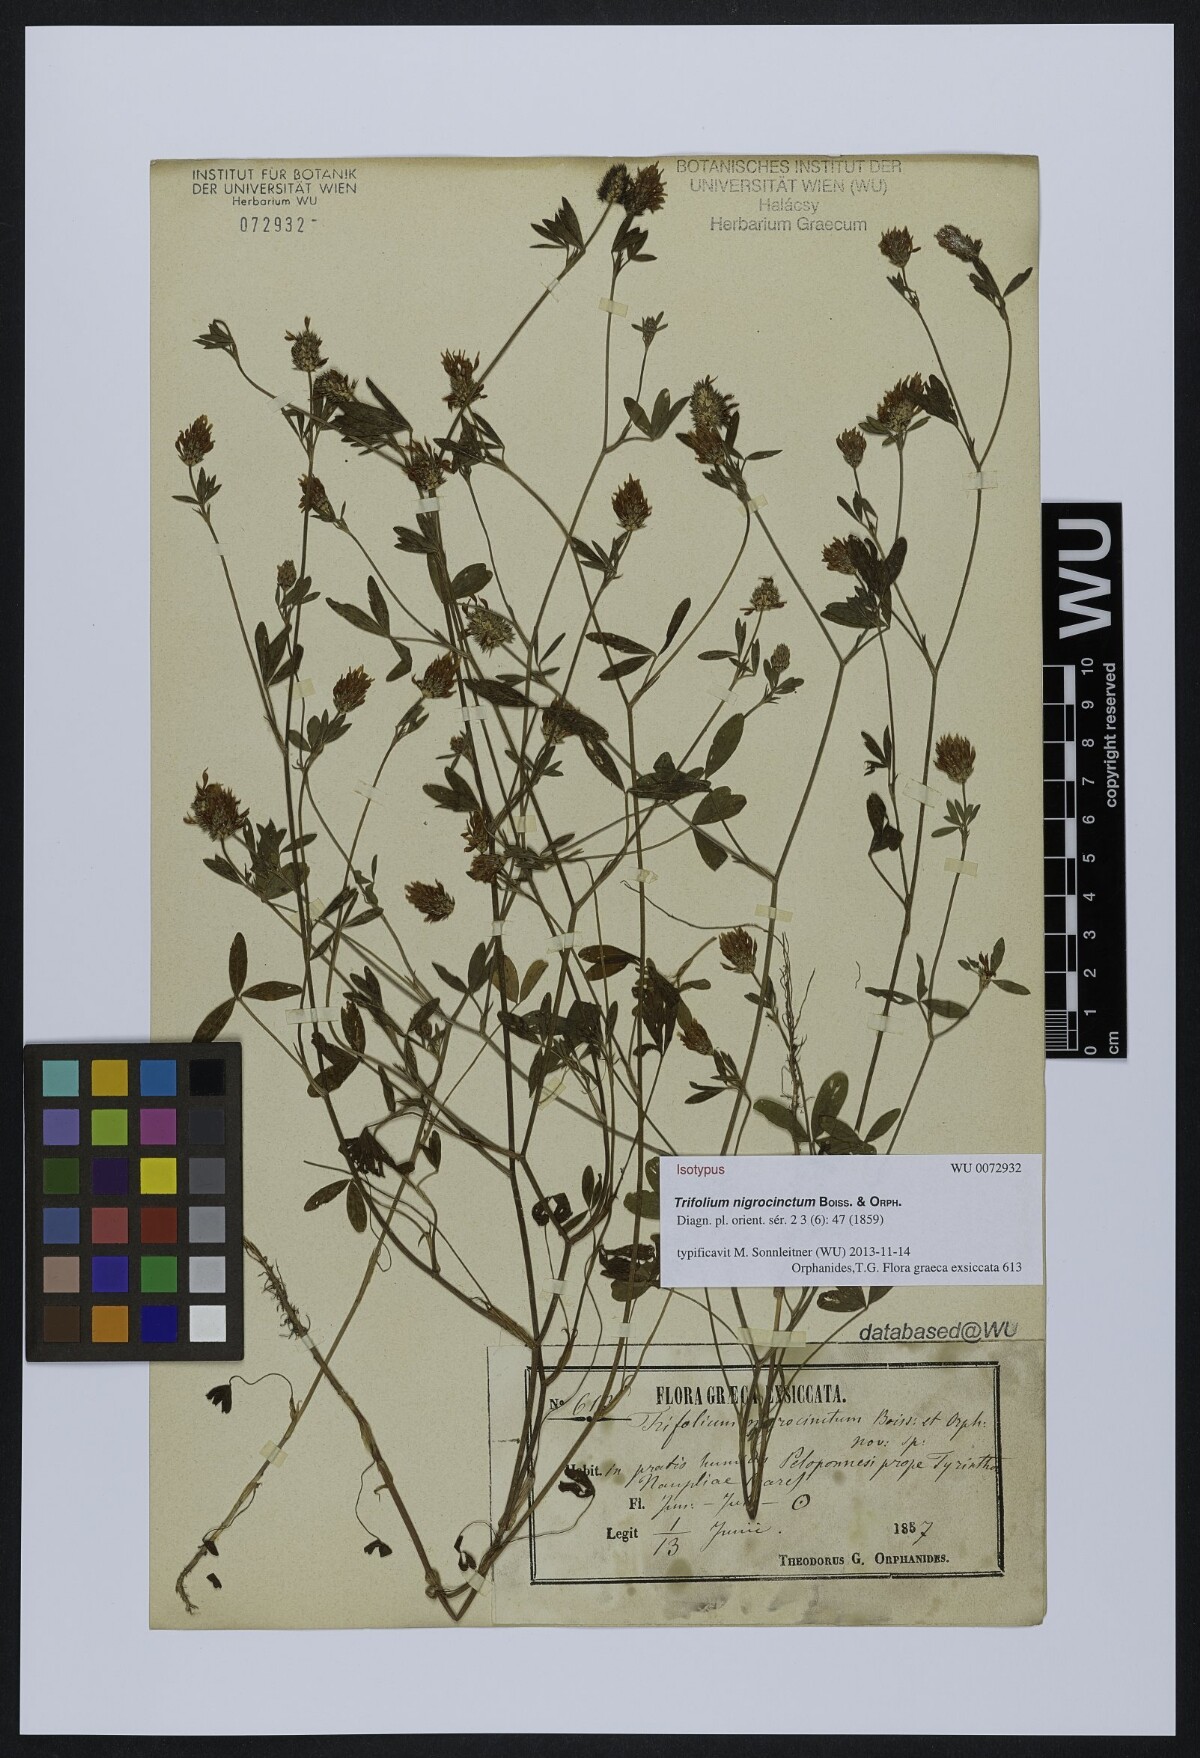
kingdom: Plantae
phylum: Tracheophyta
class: Magnoliopsida
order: Fabales
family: Fabaceae
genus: Trifolium
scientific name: Trifolium squamosum
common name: Sea clover
